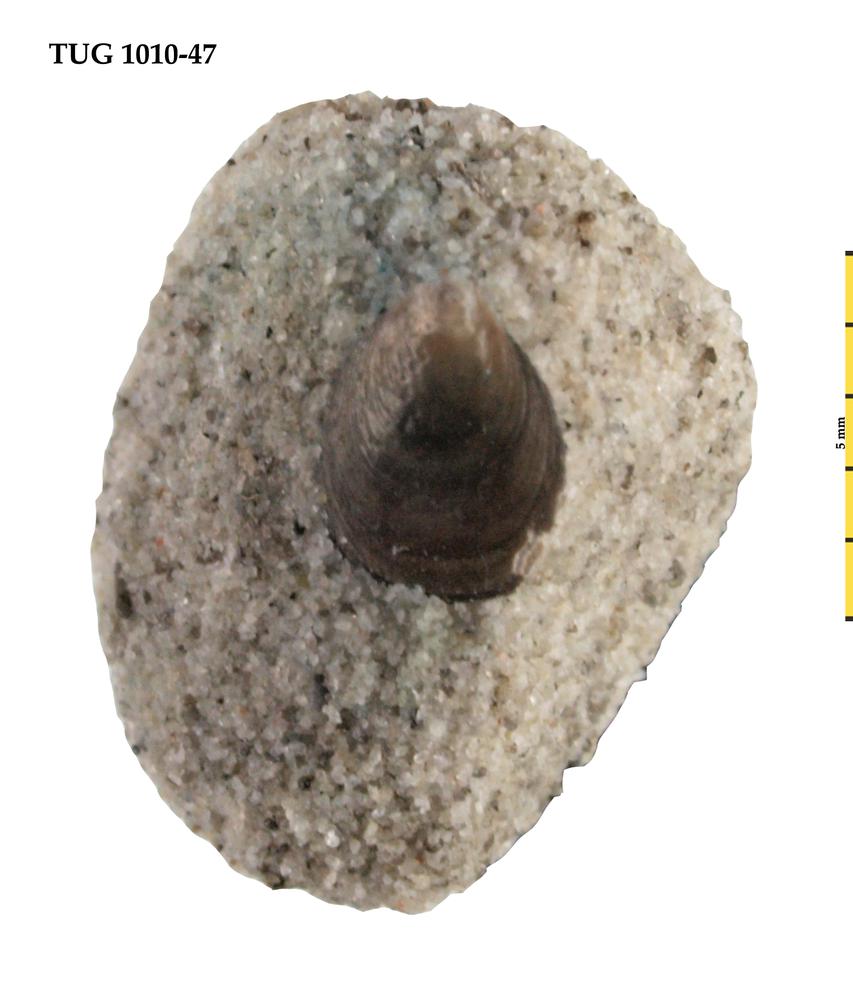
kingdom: Animalia
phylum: Brachiopoda
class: Lingulata
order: Lingulida
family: Obolidae
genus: Schmidtites
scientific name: Schmidtites Schmidtia celata
